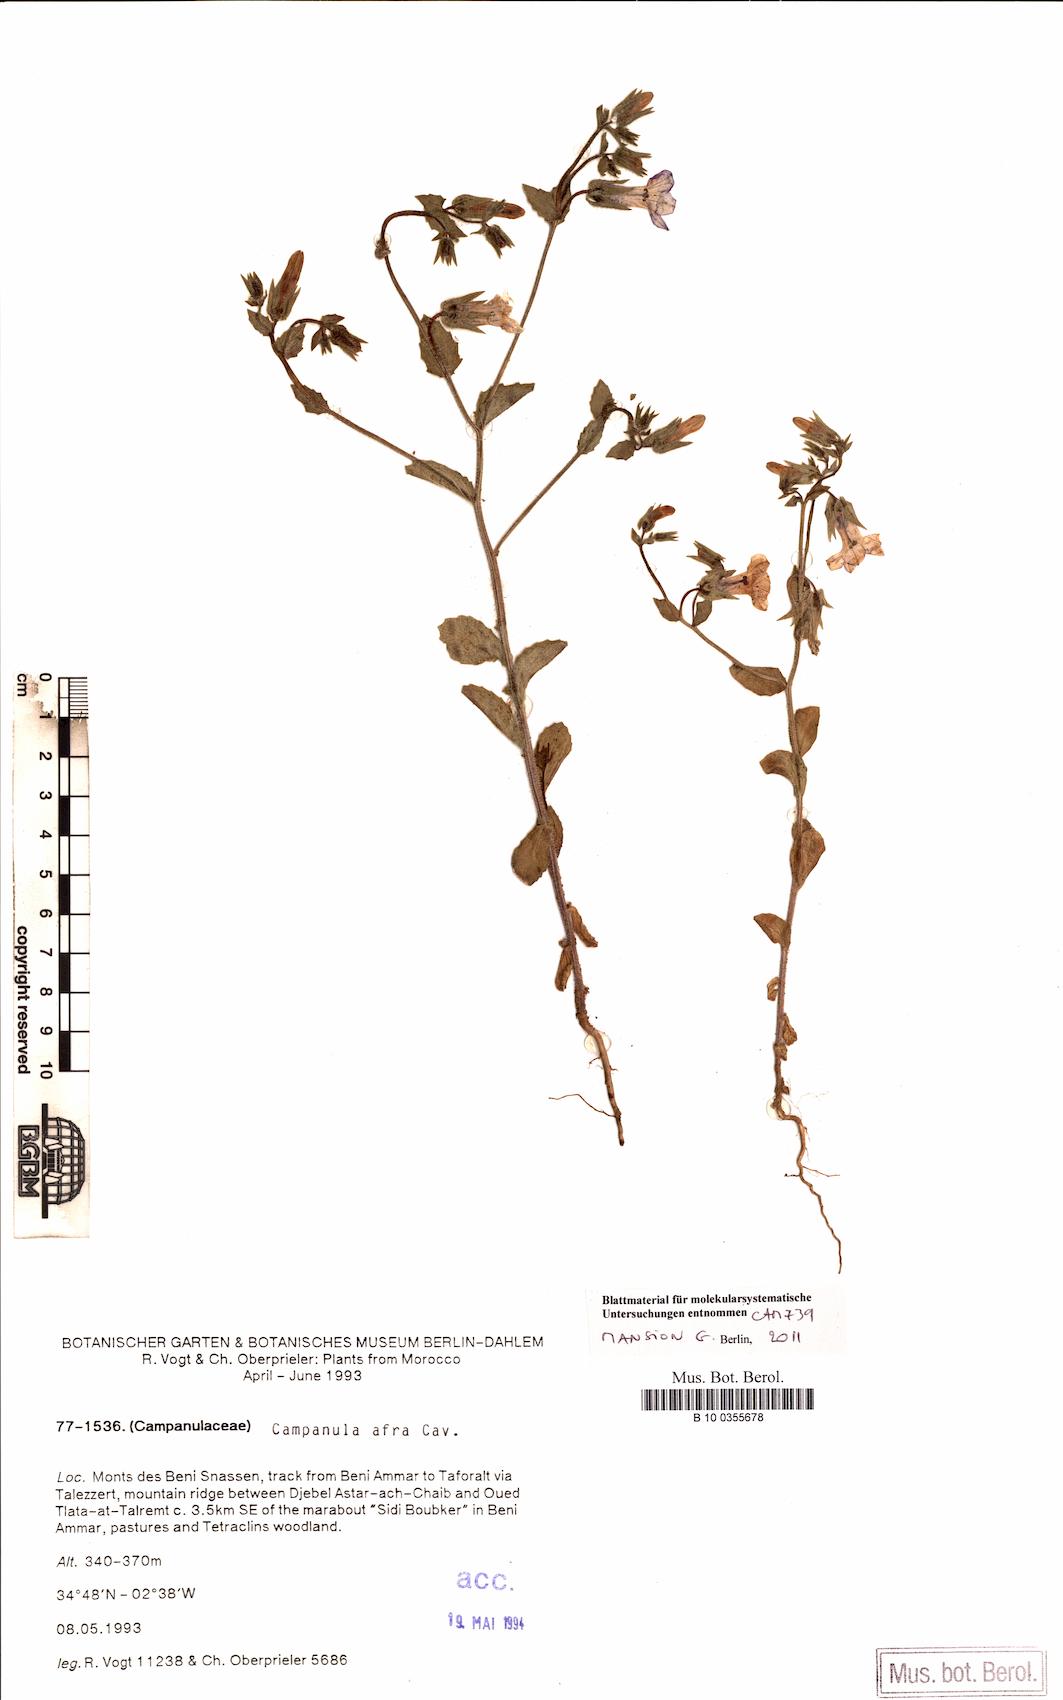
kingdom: Plantae
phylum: Tracheophyta
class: Magnoliopsida
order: Asterales
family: Campanulaceae
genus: Campanula
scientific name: Campanula afra
